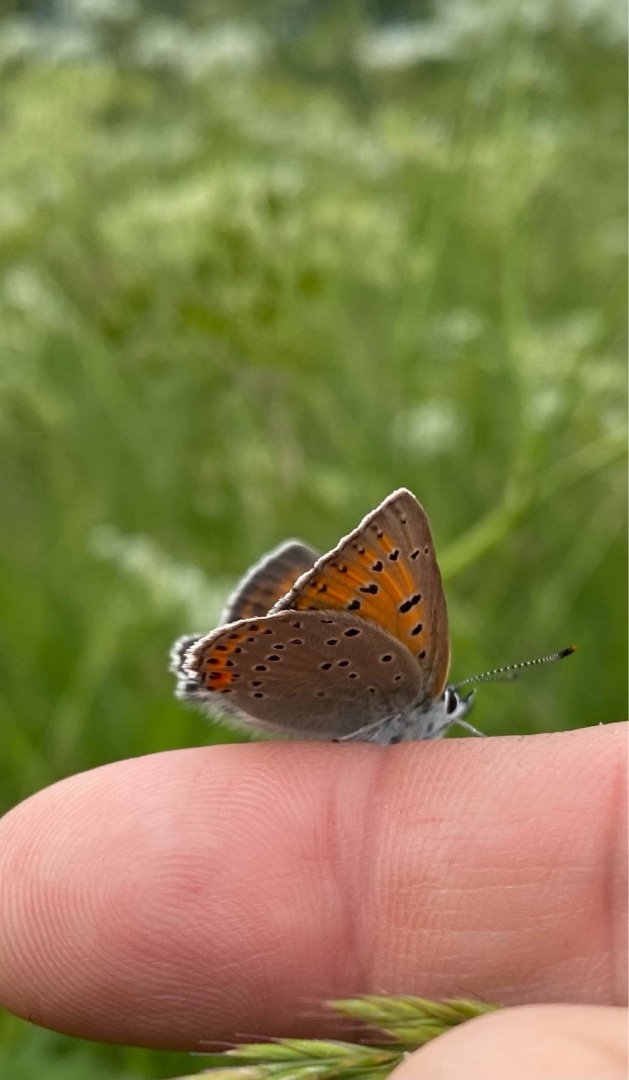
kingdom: Animalia
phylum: Arthropoda
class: Insecta
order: Lepidoptera
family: Lycaenidae
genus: Palaeochrysophanus
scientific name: Palaeochrysophanus hippothoe
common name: Violetrandet ildfugl
